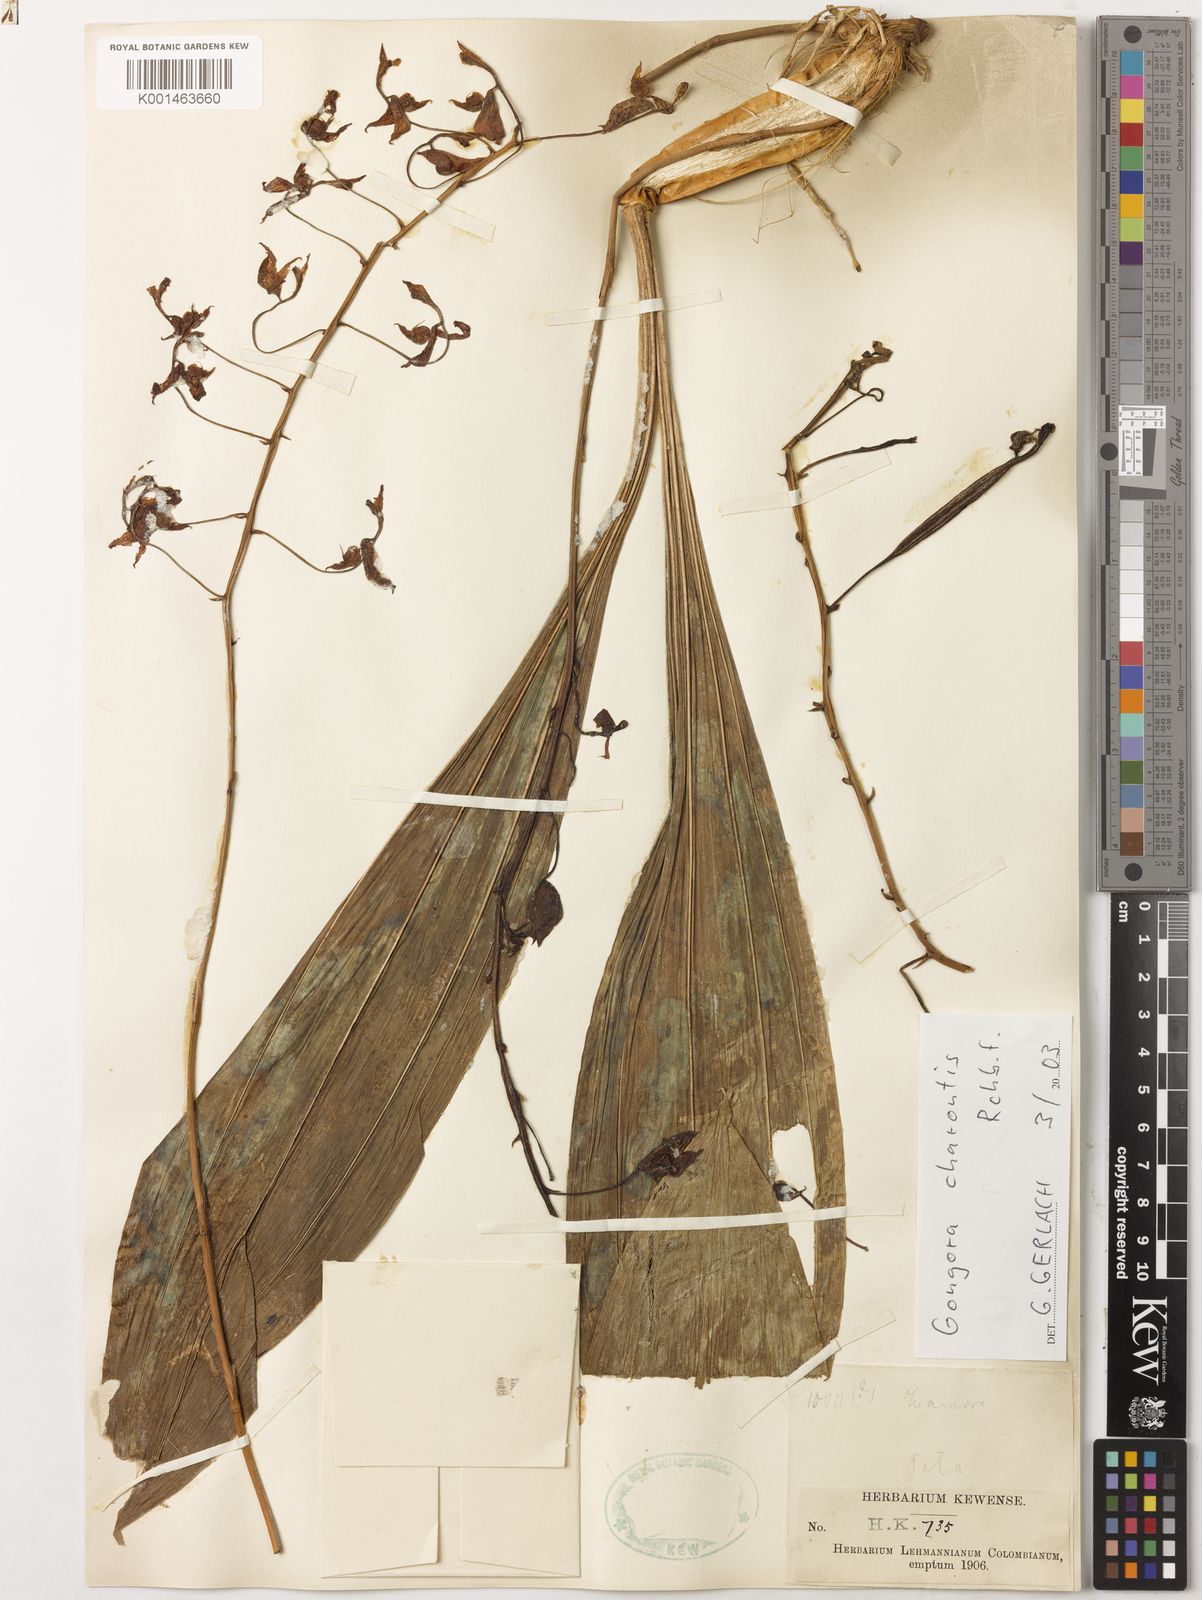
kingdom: Plantae
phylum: Tracheophyta
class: Liliopsida
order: Asparagales
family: Orchidaceae
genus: Gongora
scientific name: Gongora charontis
